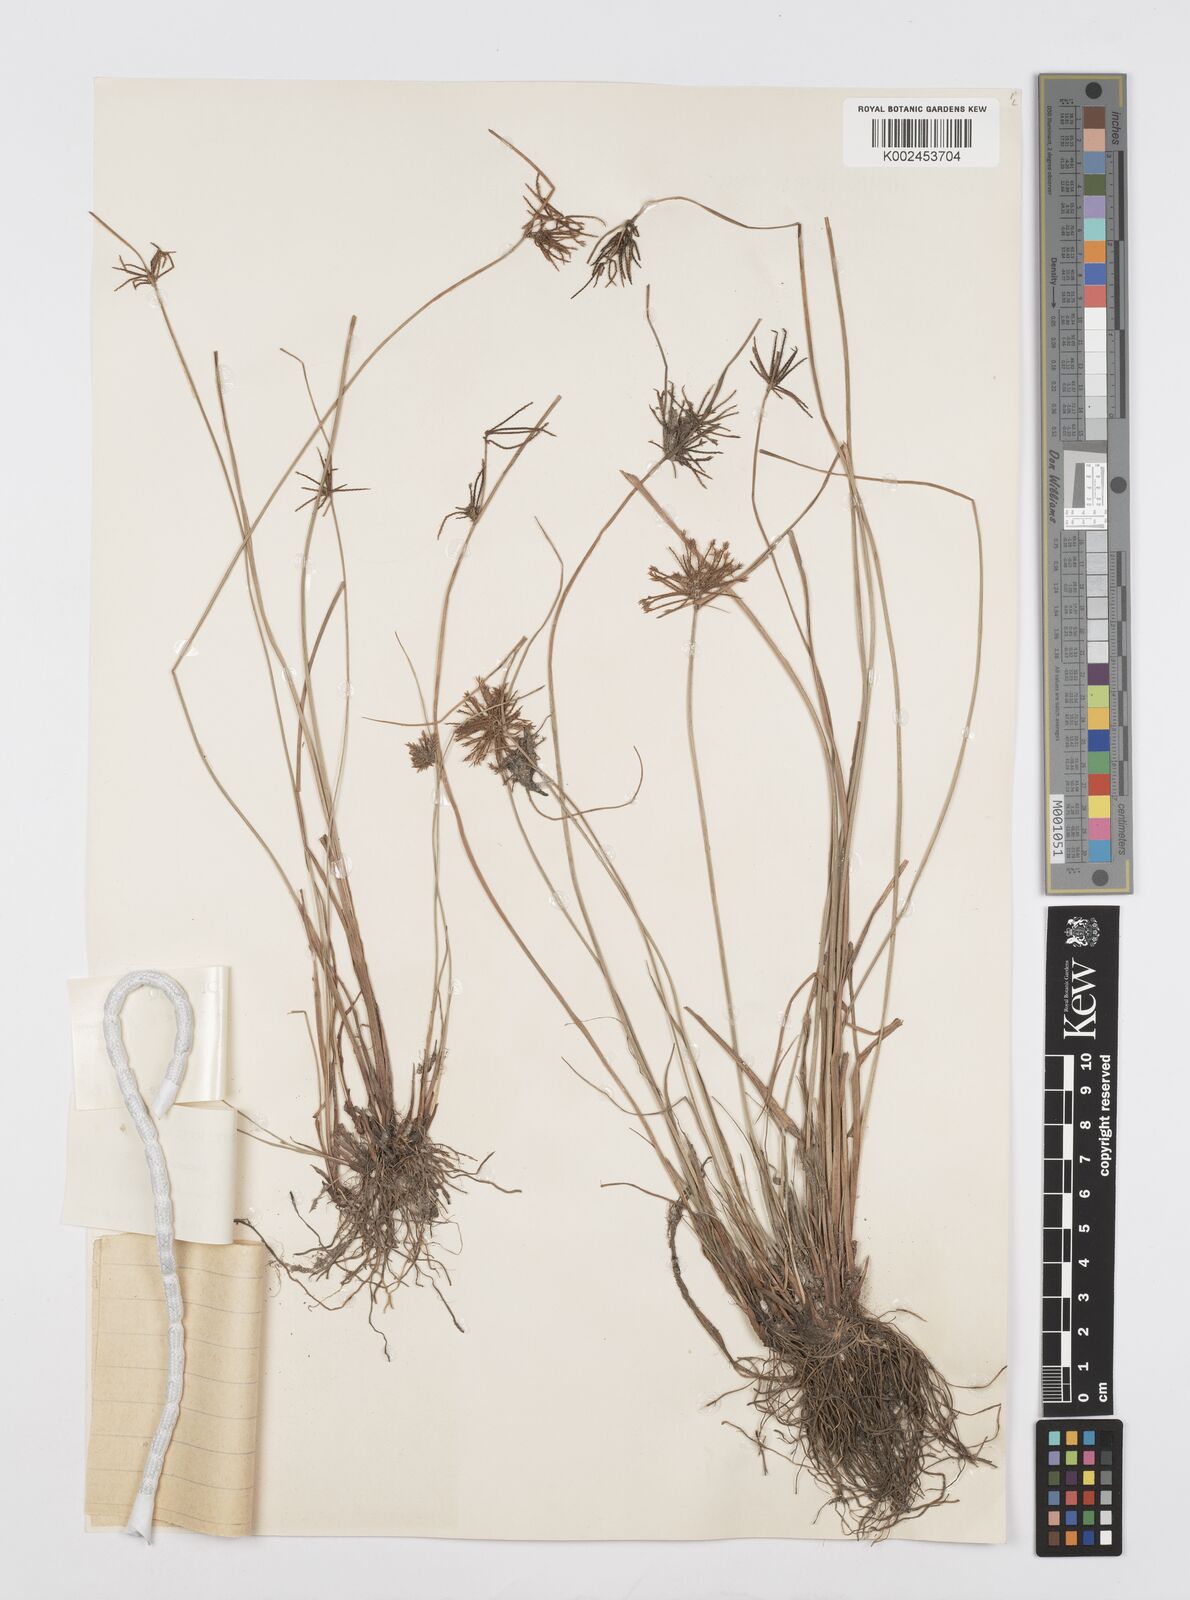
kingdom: Plantae
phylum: Tracheophyta
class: Liliopsida
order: Poales
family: Cyperaceae
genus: Cyperus
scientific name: Cyperus flavidus
